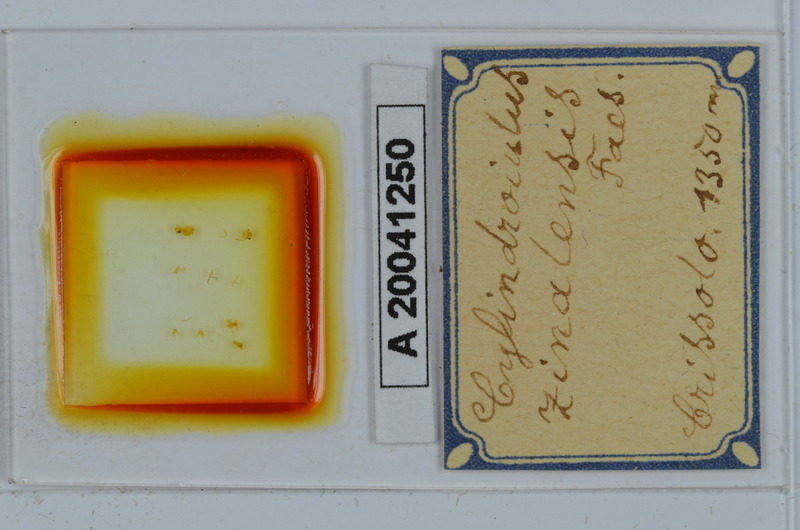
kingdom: Animalia
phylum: Arthropoda
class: Diplopoda
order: Julida
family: Julidae
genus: Cylindroiulus
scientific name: Cylindroiulus zinalensis
